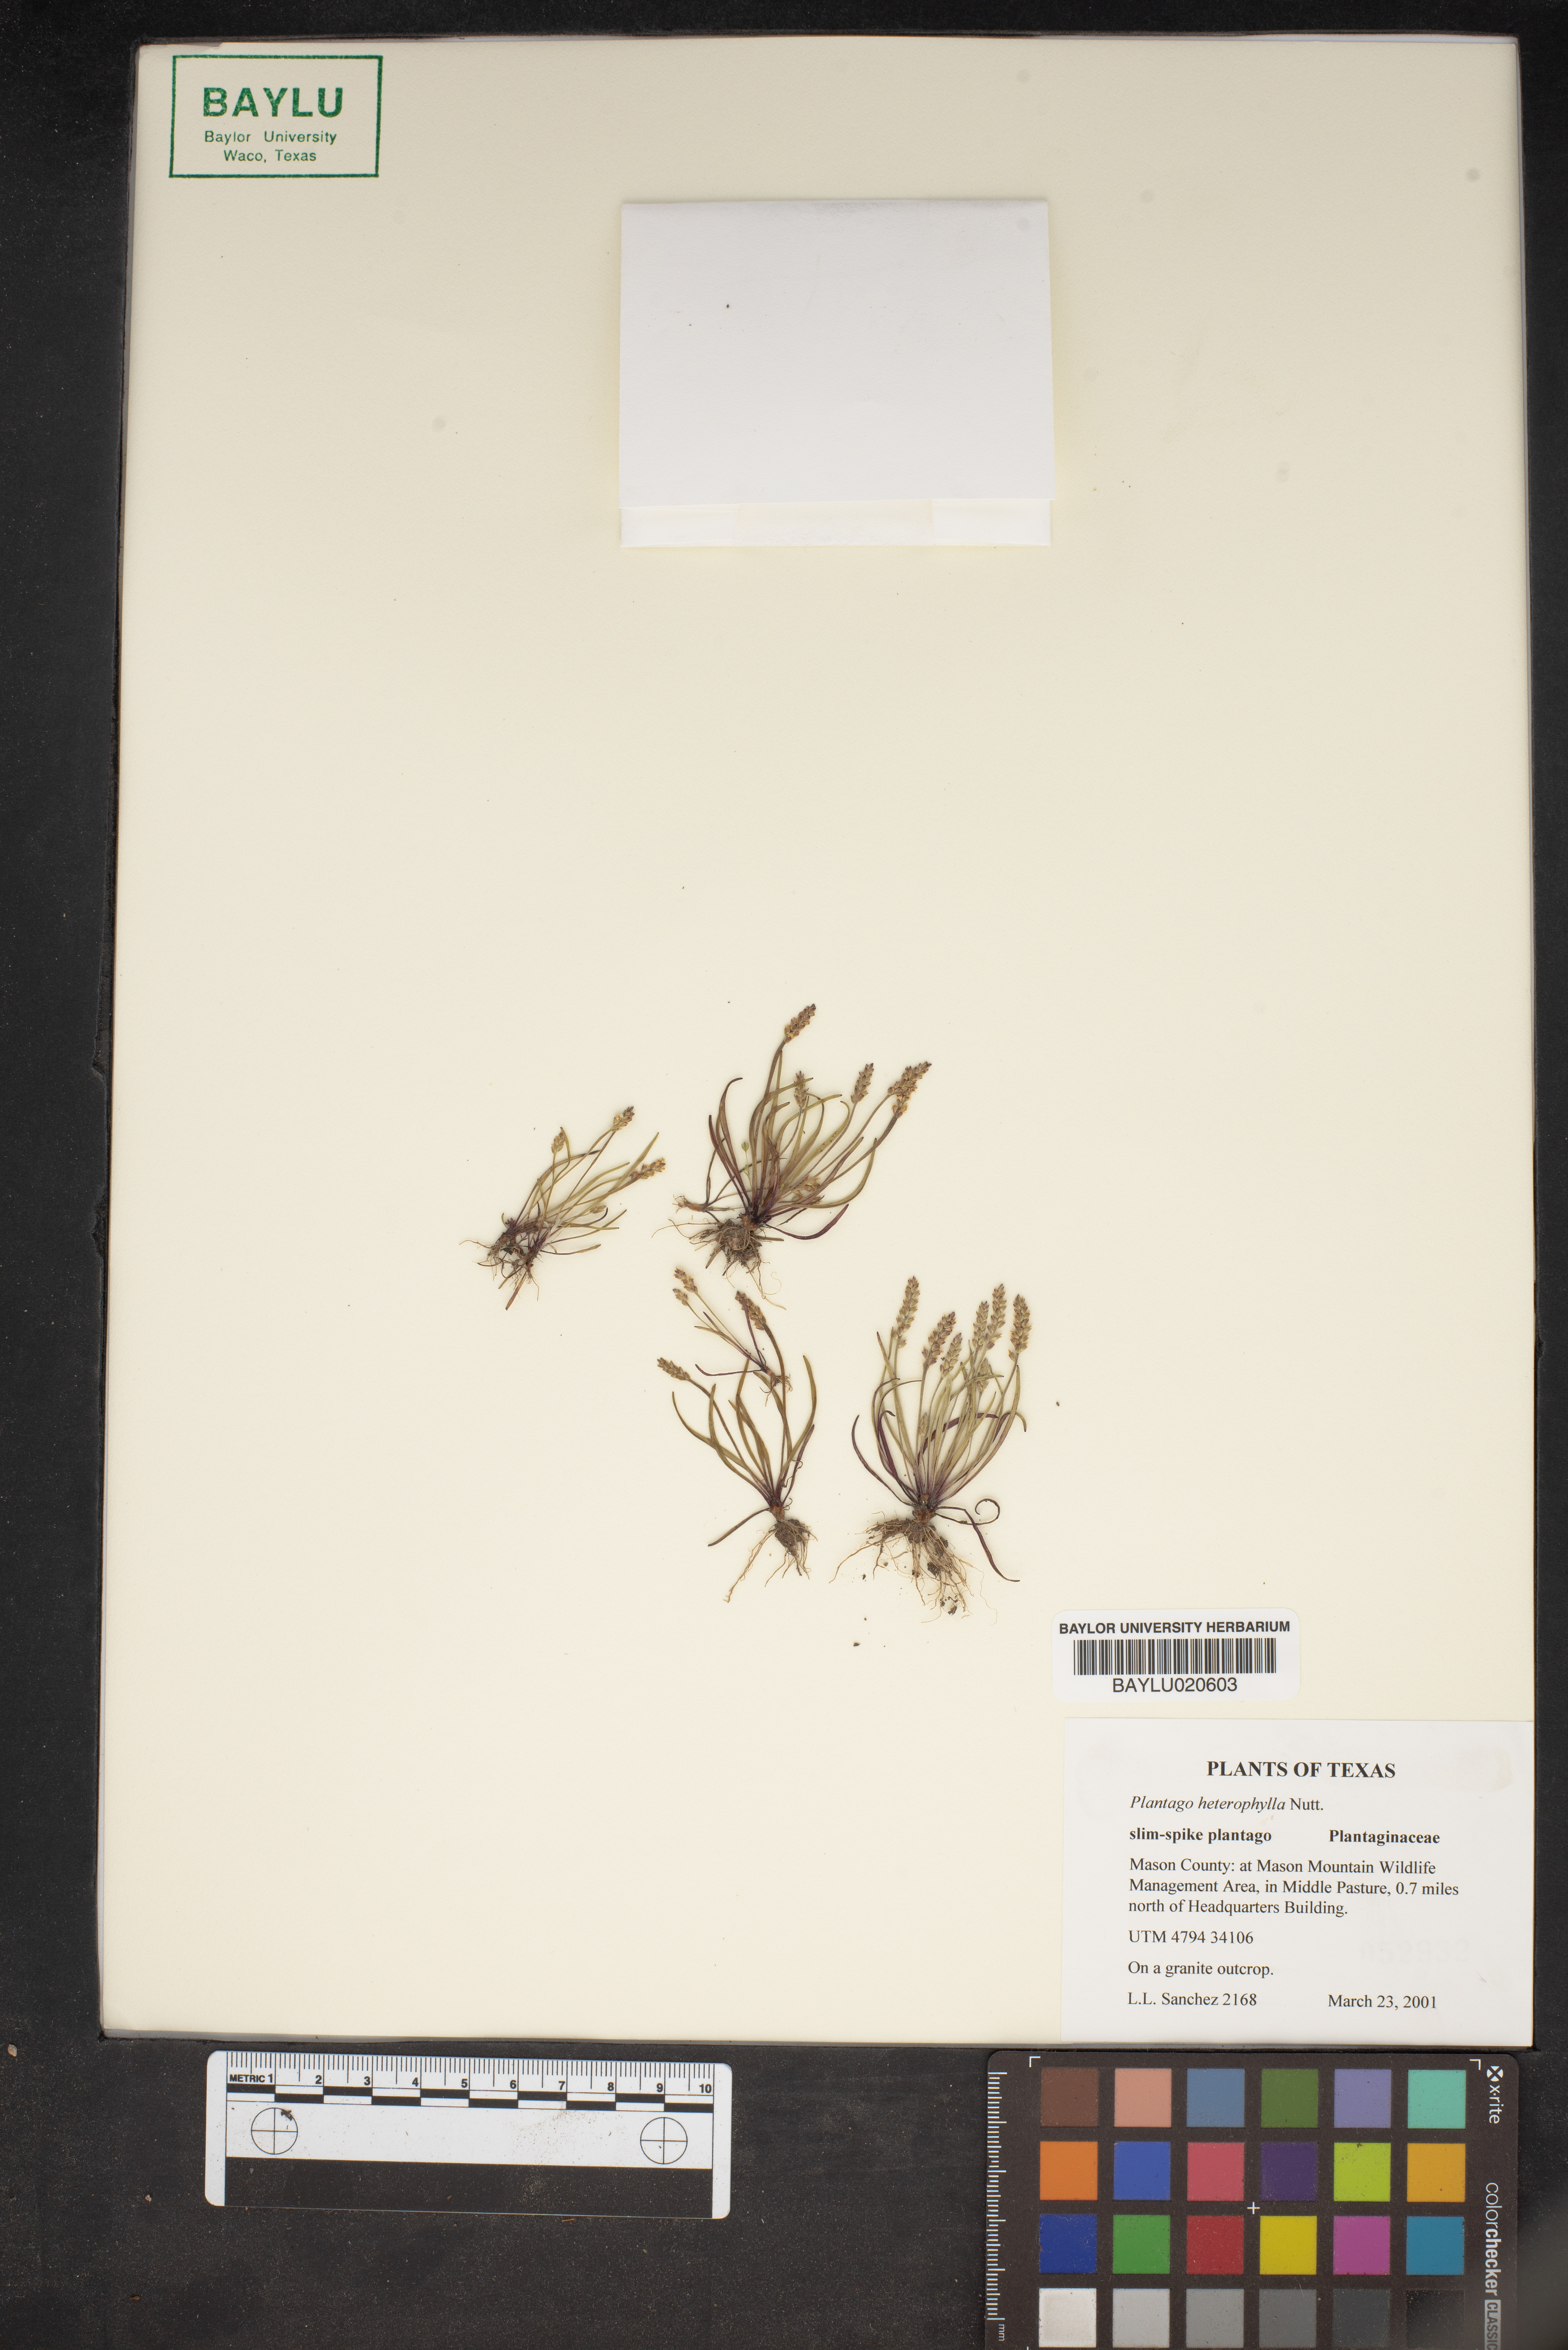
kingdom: Plantae
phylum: Tracheophyta
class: Magnoliopsida
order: Lamiales
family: Plantaginaceae
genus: Plantago
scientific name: Plantago heterophylla
